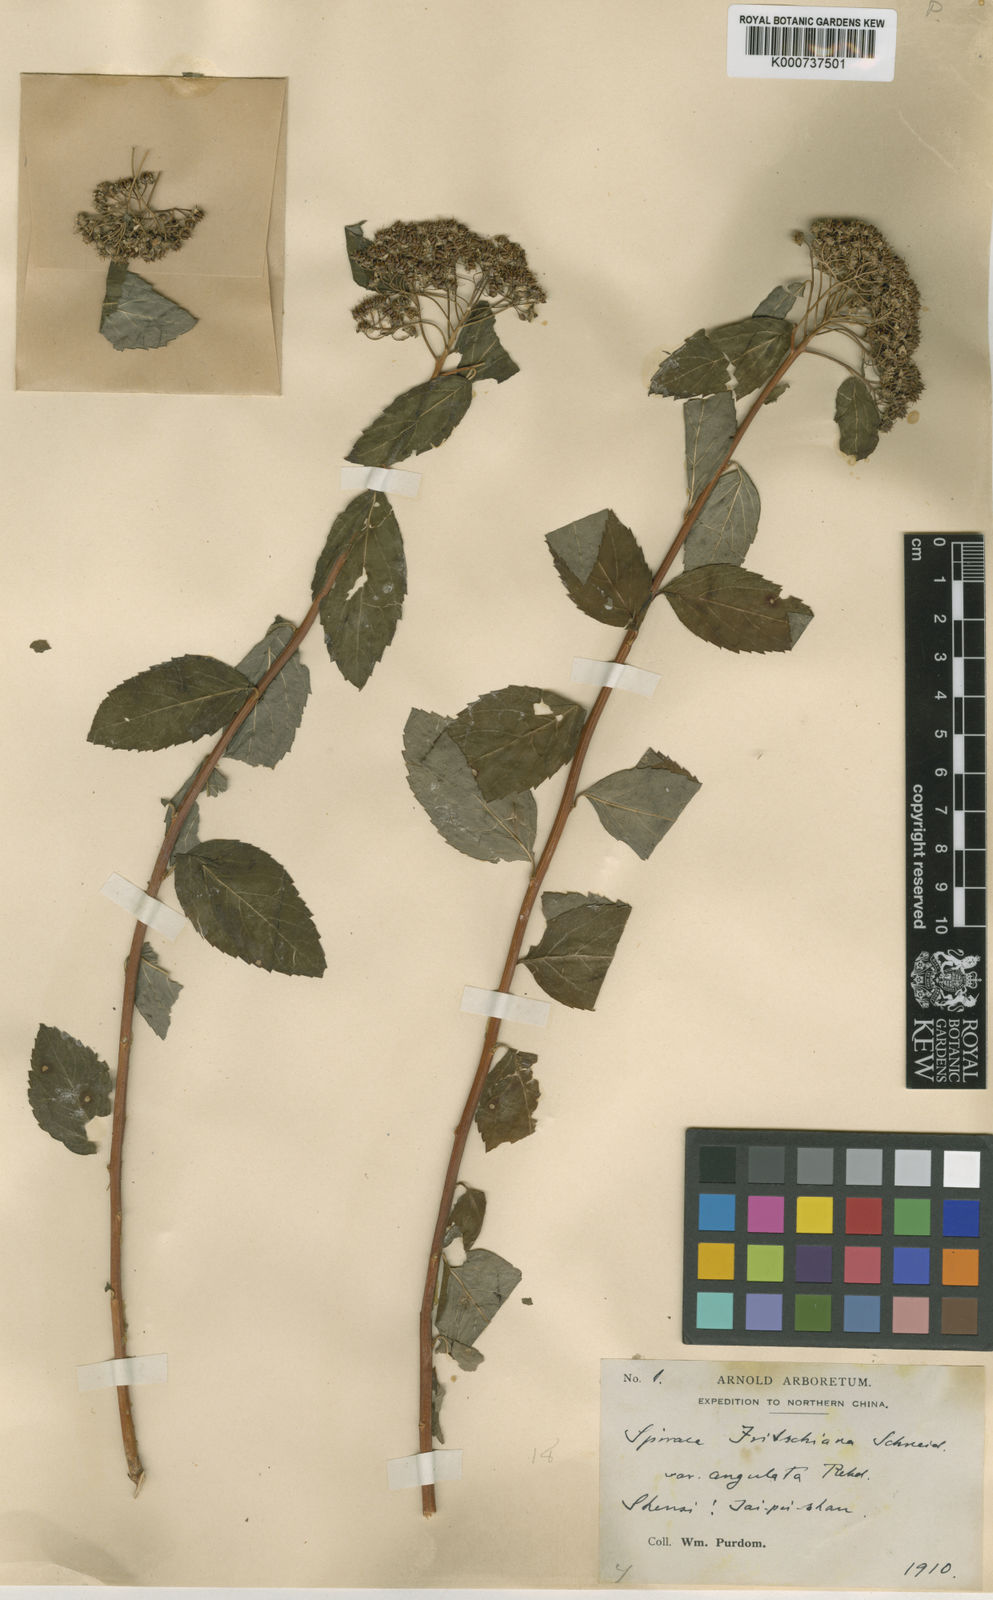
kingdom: Plantae
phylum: Tracheophyta
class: Magnoliopsida
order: Rosales
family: Rosaceae
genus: Spiraea
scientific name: Spiraea fritschiana
